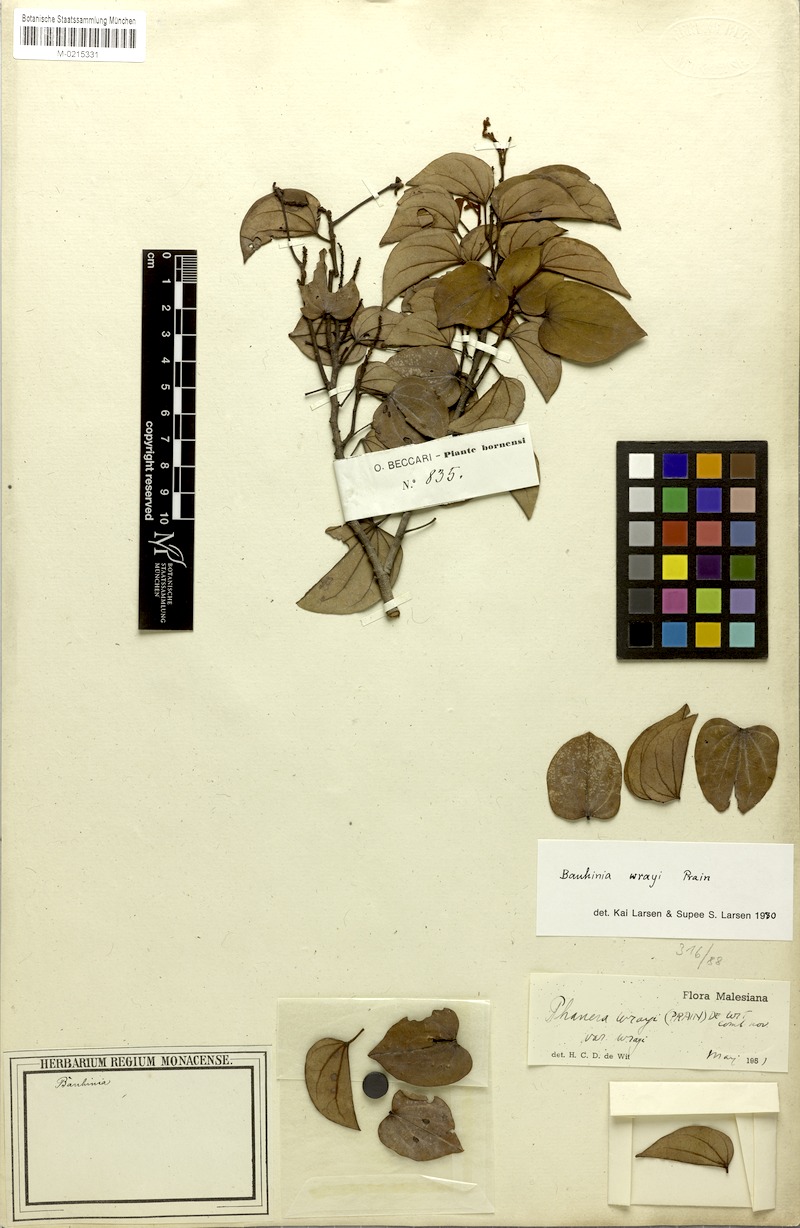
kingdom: Plantae
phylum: Tracheophyta
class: Magnoliopsida
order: Fabales
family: Fabaceae
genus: Phanera
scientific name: Phanera wrayi
